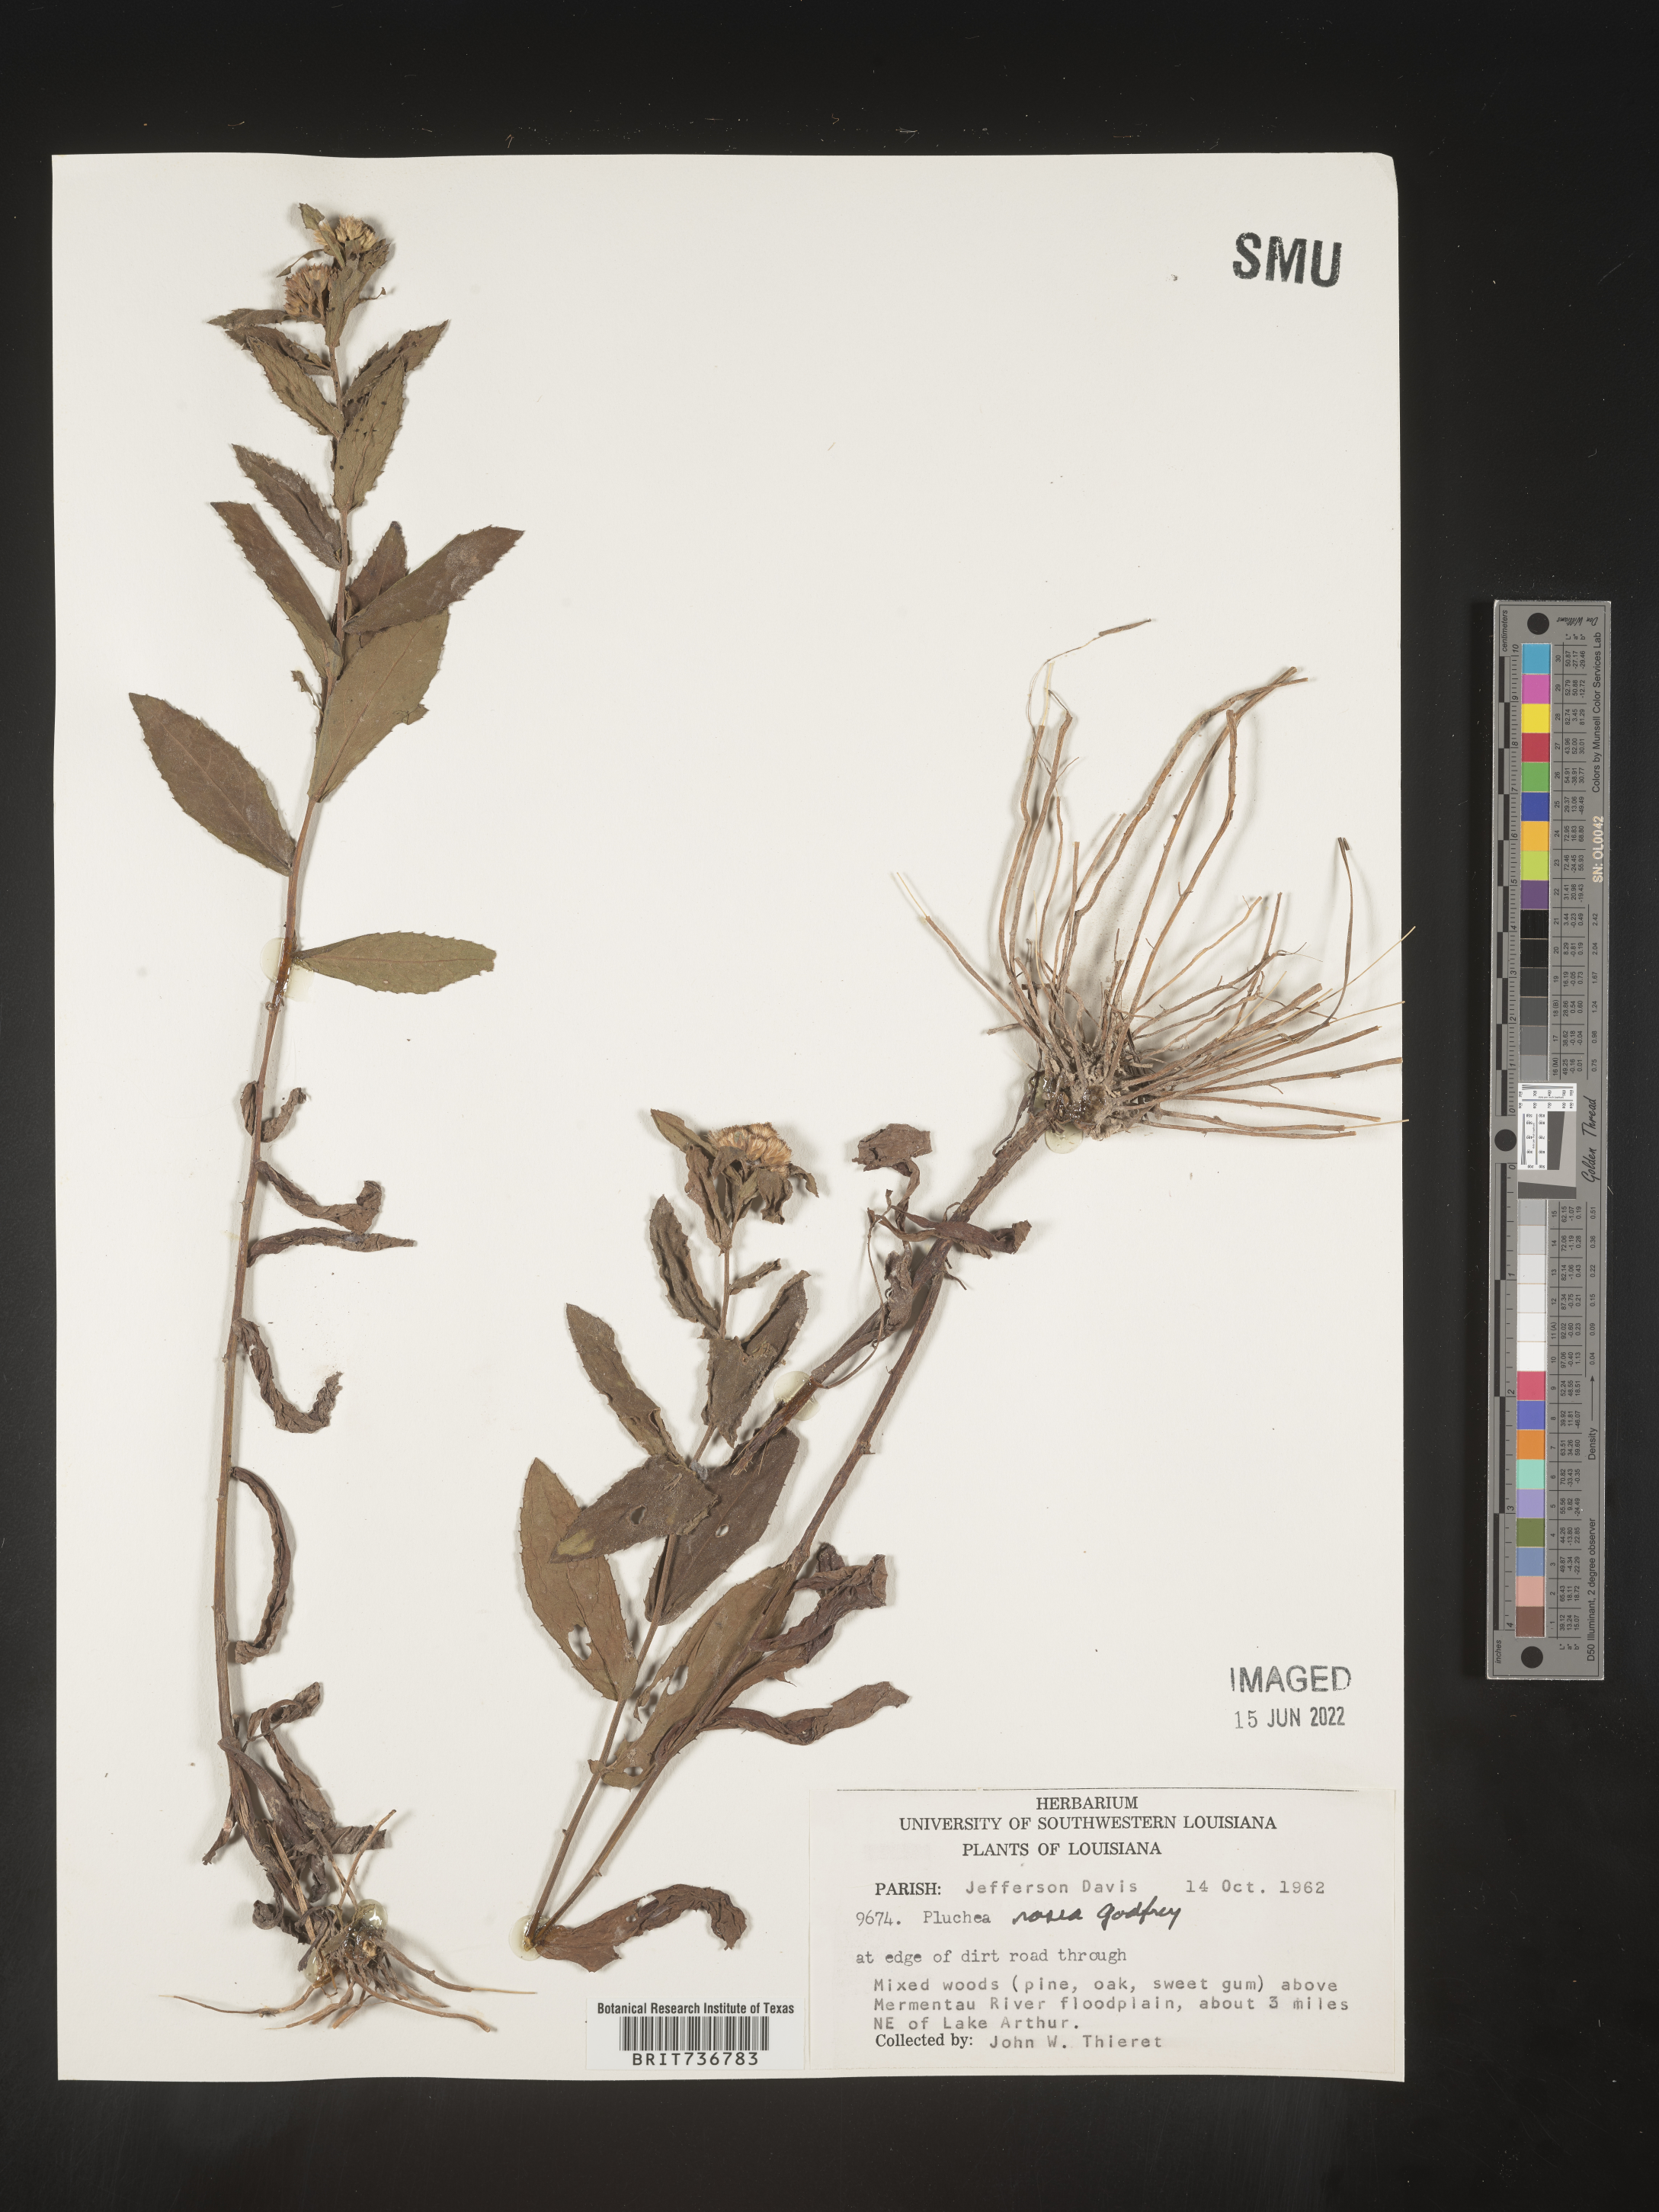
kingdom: Plantae
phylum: Tracheophyta
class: Magnoliopsida
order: Asterales
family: Asteraceae
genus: Pluchea
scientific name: Pluchea baccharis
